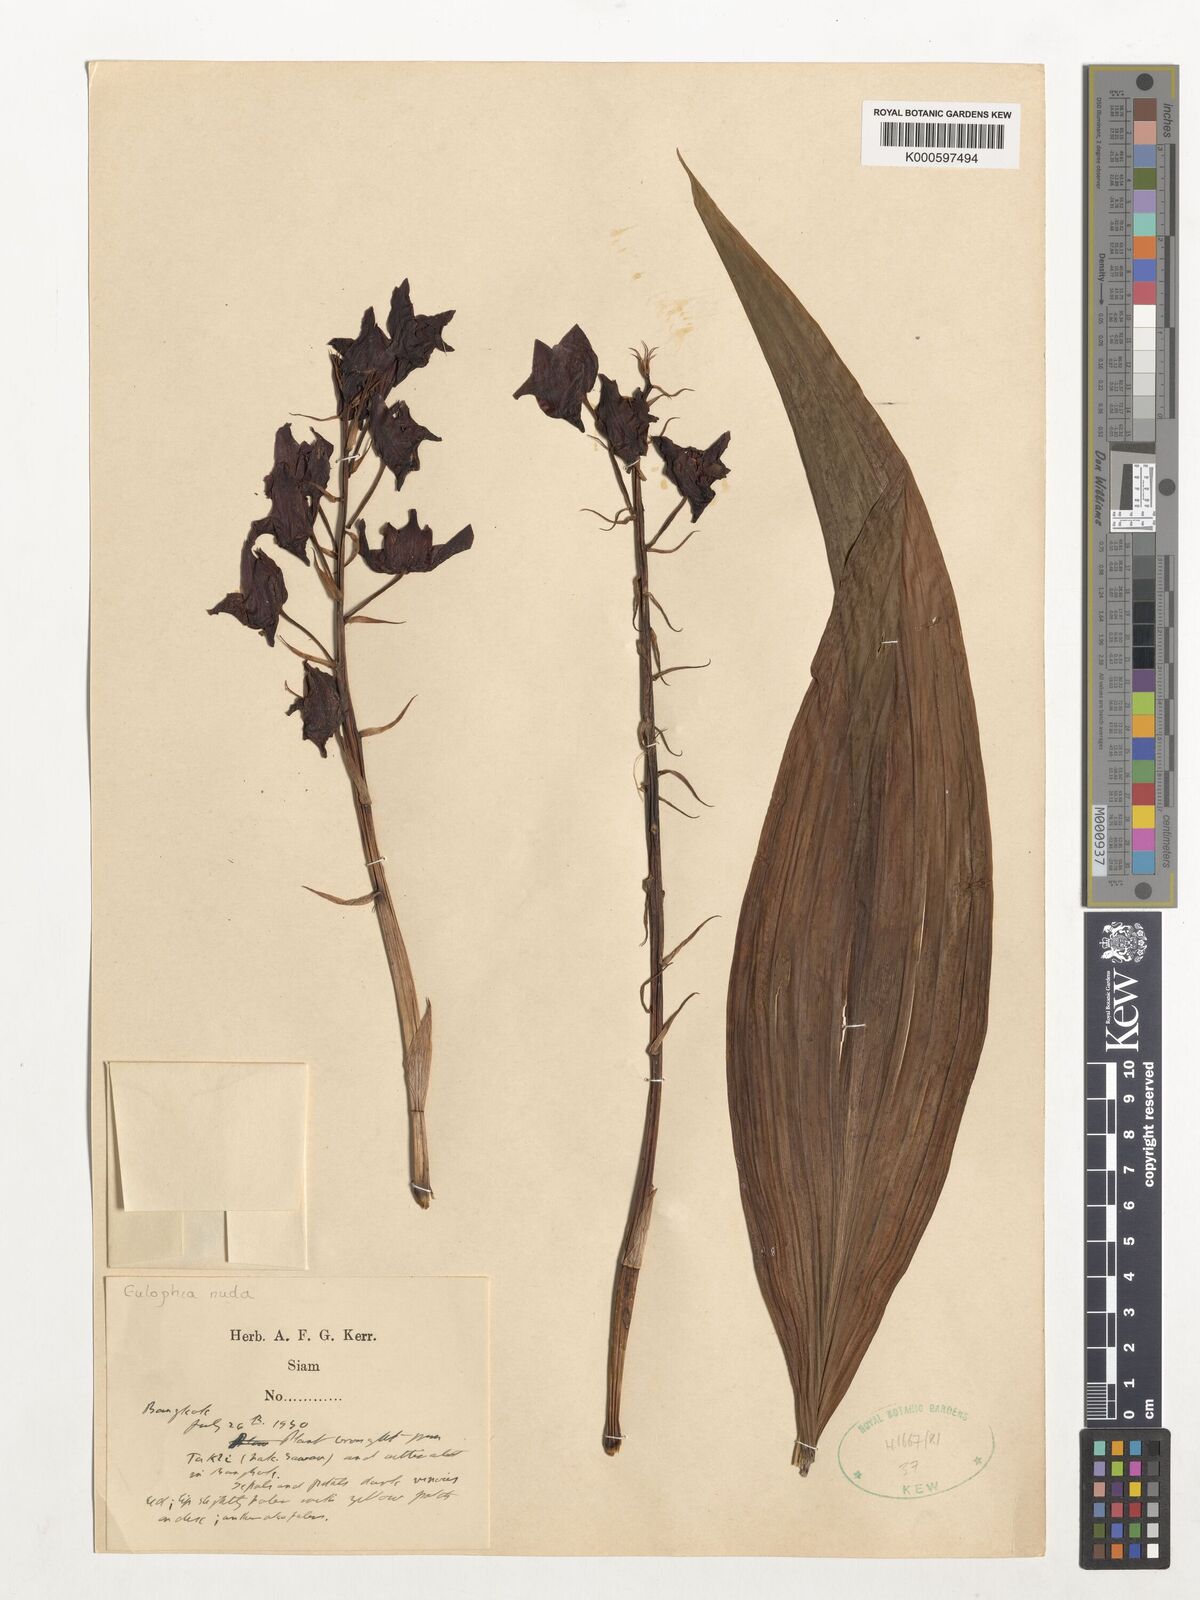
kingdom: Plantae
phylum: Tracheophyta
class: Liliopsida
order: Asparagales
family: Orchidaceae
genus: Eulophia
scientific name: Eulophia nuda
